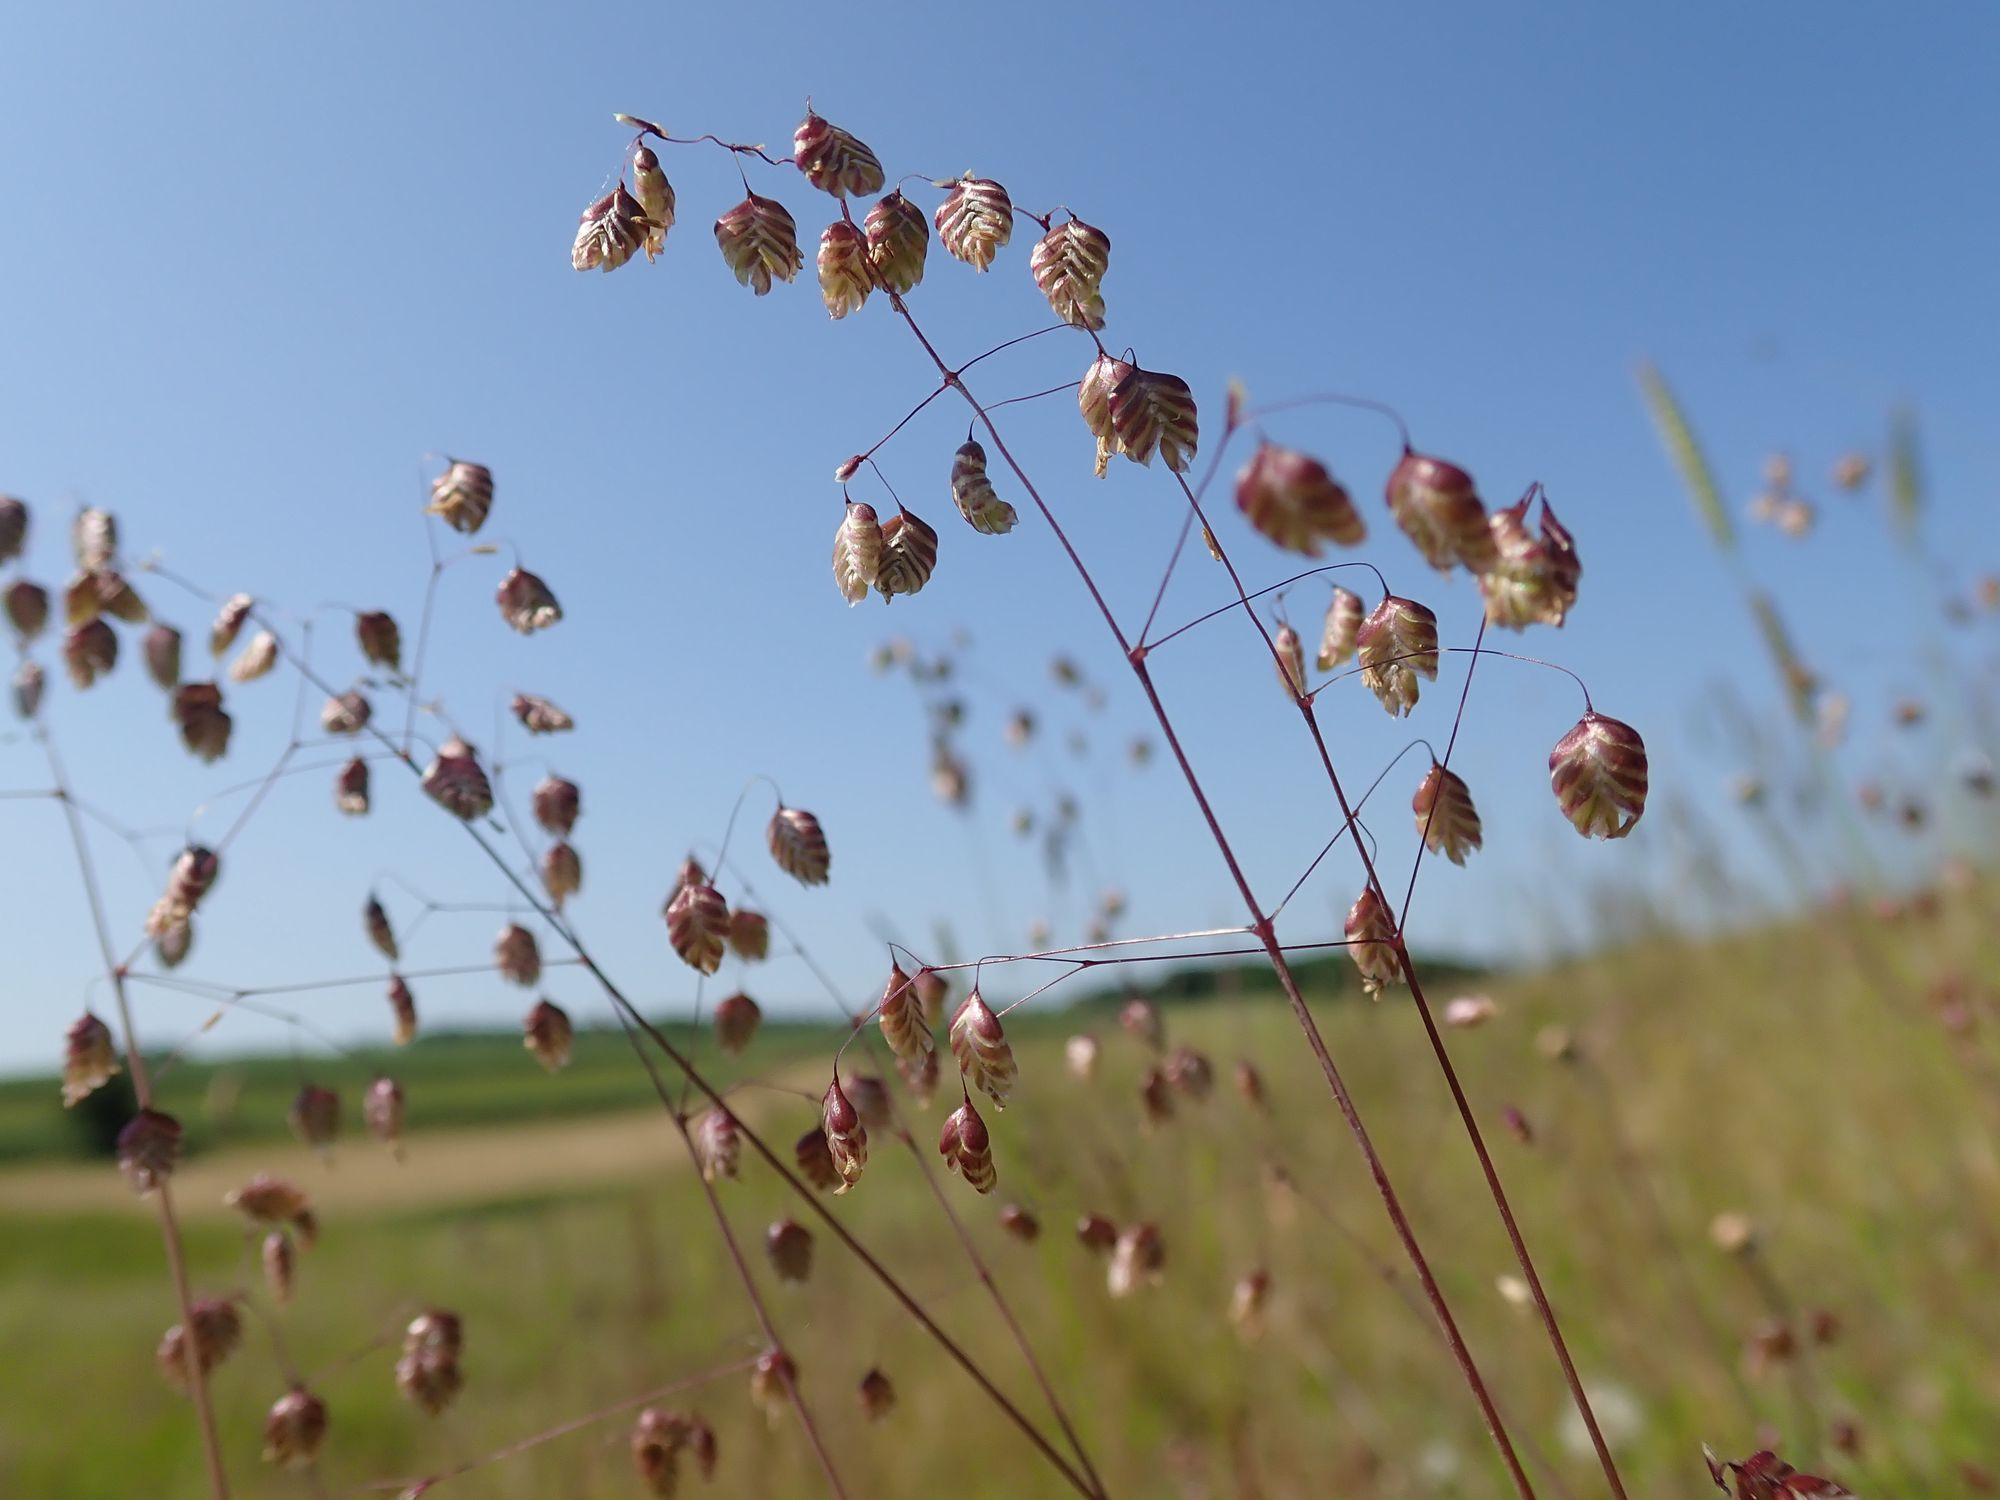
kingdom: Plantae
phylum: Tracheophyta
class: Liliopsida
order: Poales
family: Poaceae
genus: Briza
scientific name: Briza media
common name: Hjertegræs
